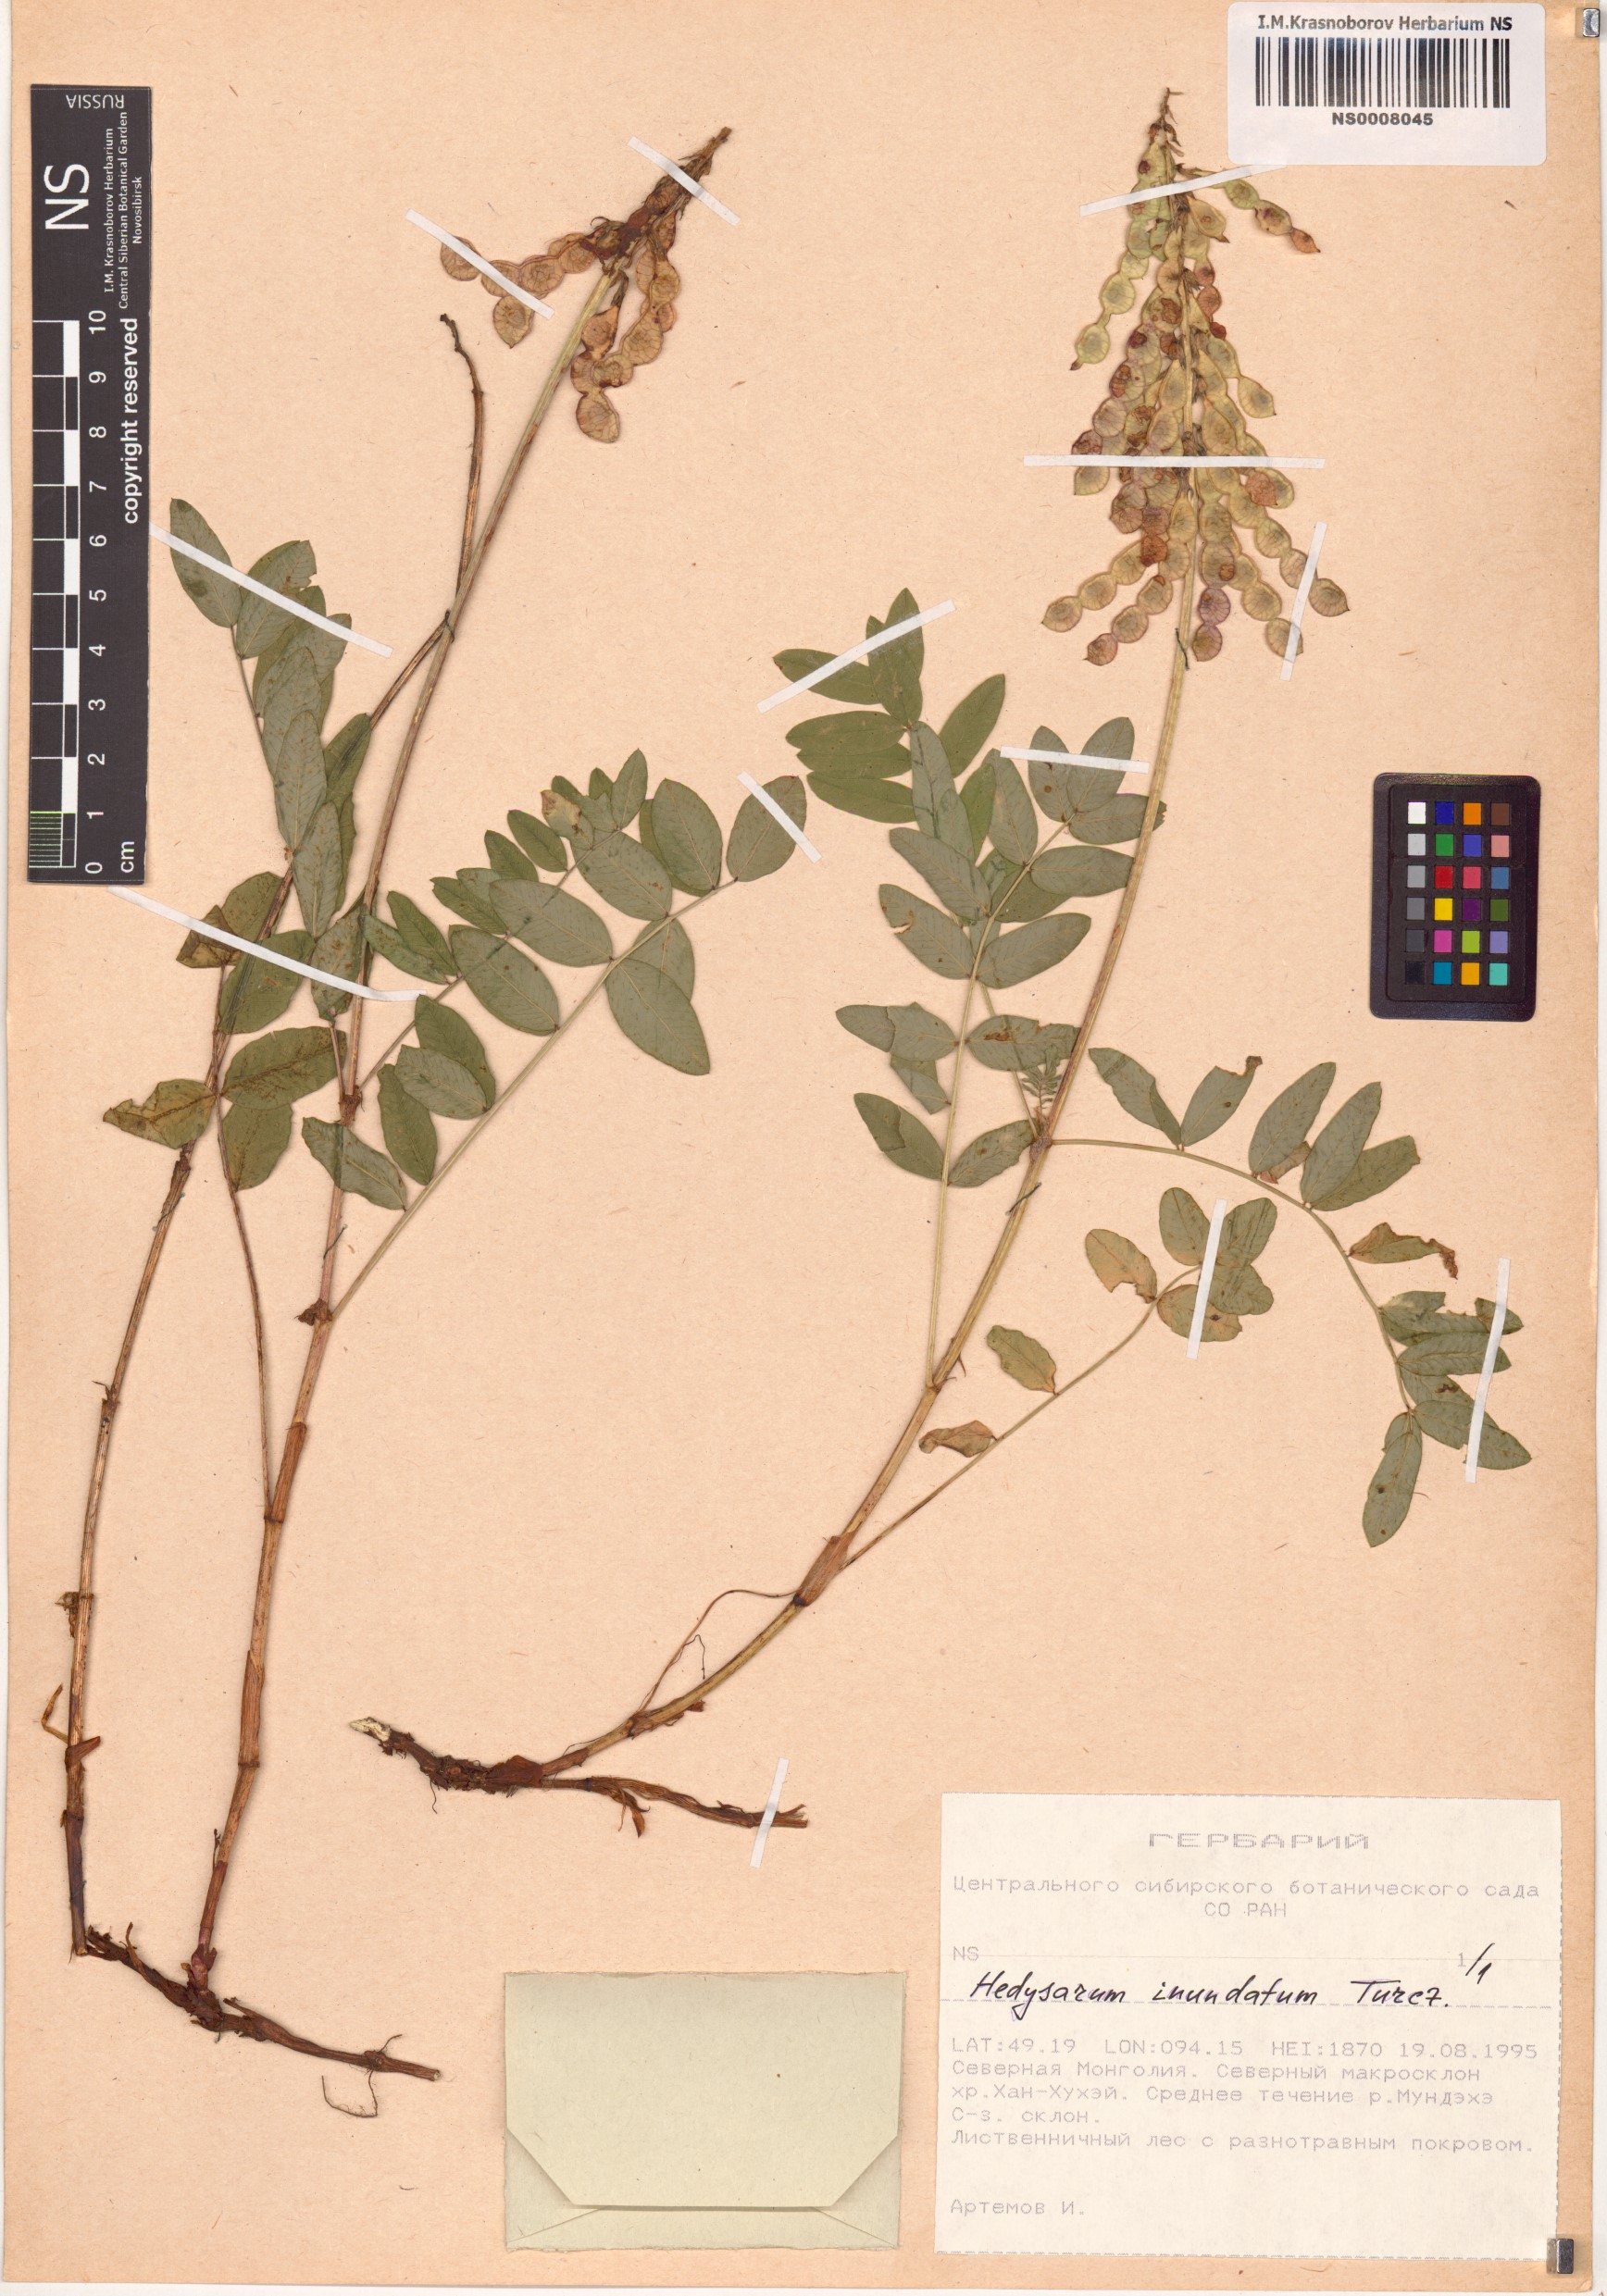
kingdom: Plantae
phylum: Tracheophyta
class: Magnoliopsida
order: Fabales
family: Fabaceae
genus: Hedysarum
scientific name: Hedysarum inundatum
